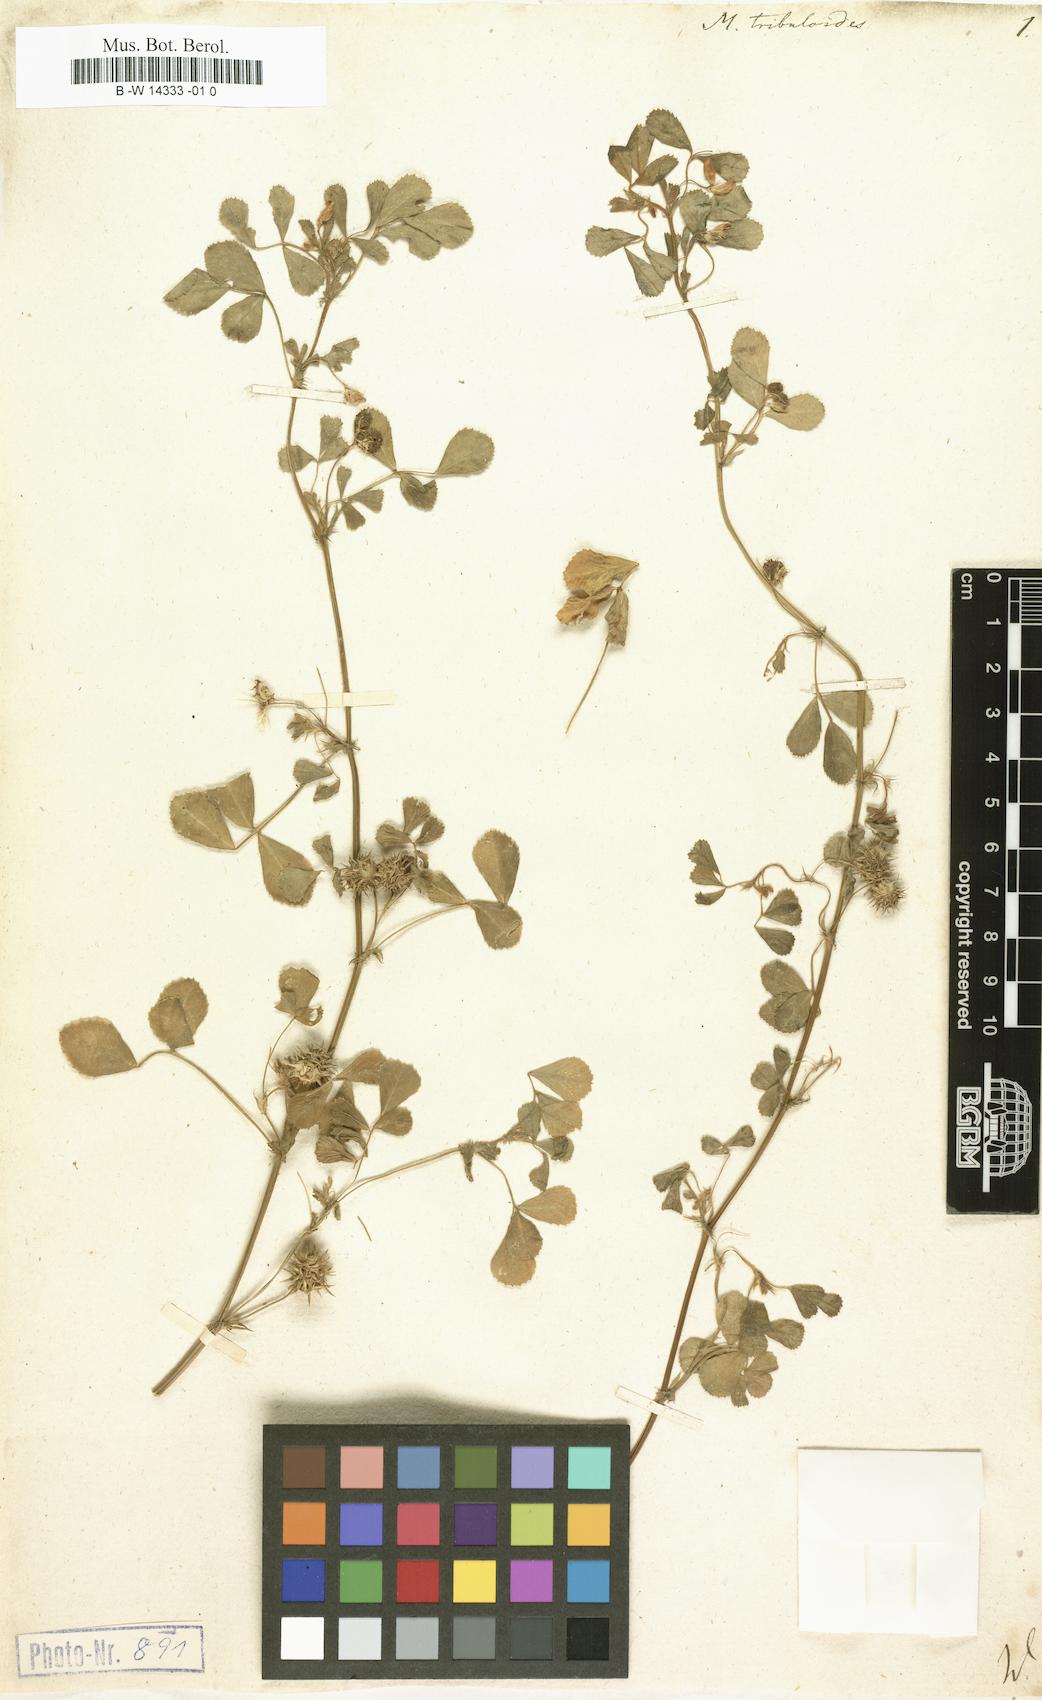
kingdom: Plantae
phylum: Tracheophyta
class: Magnoliopsida
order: Fabales
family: Fabaceae
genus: Medicago
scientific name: Medicago truncatula
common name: Strong-spined medick
